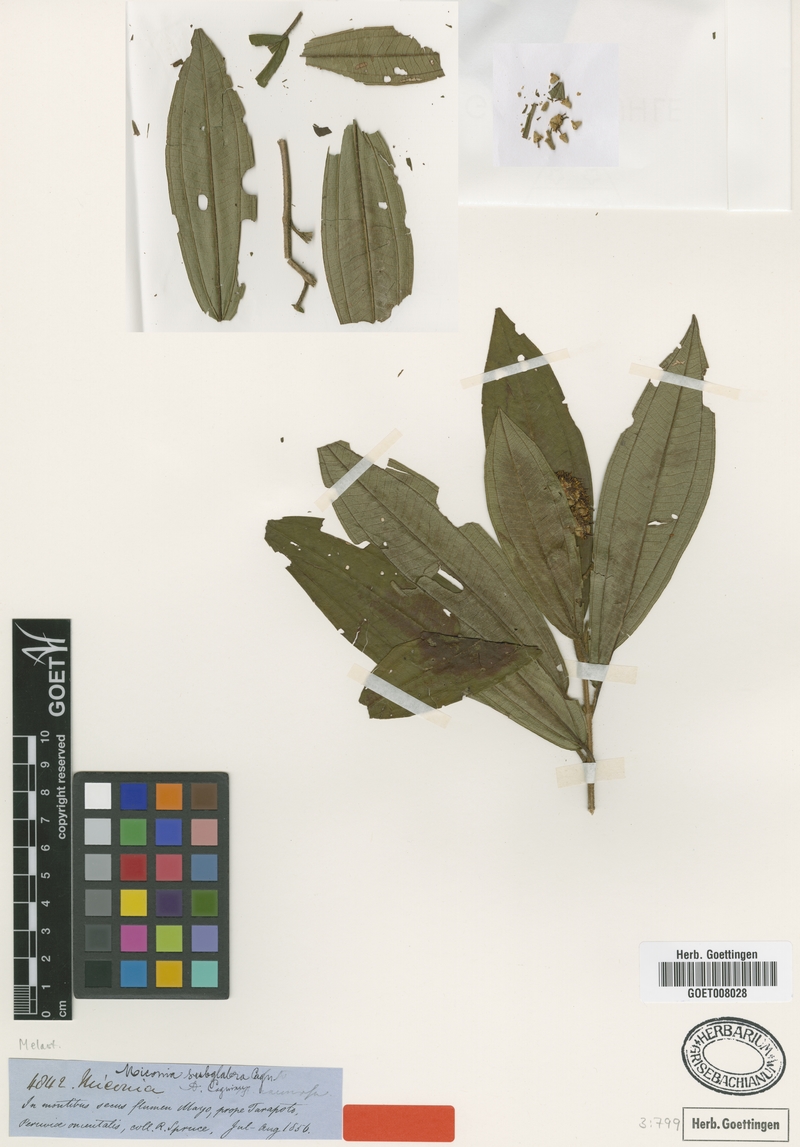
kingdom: Plantae
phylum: Tracheophyta
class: Magnoliopsida
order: Myrtales
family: Melastomataceae
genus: Miconia
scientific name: Miconia subglabra
